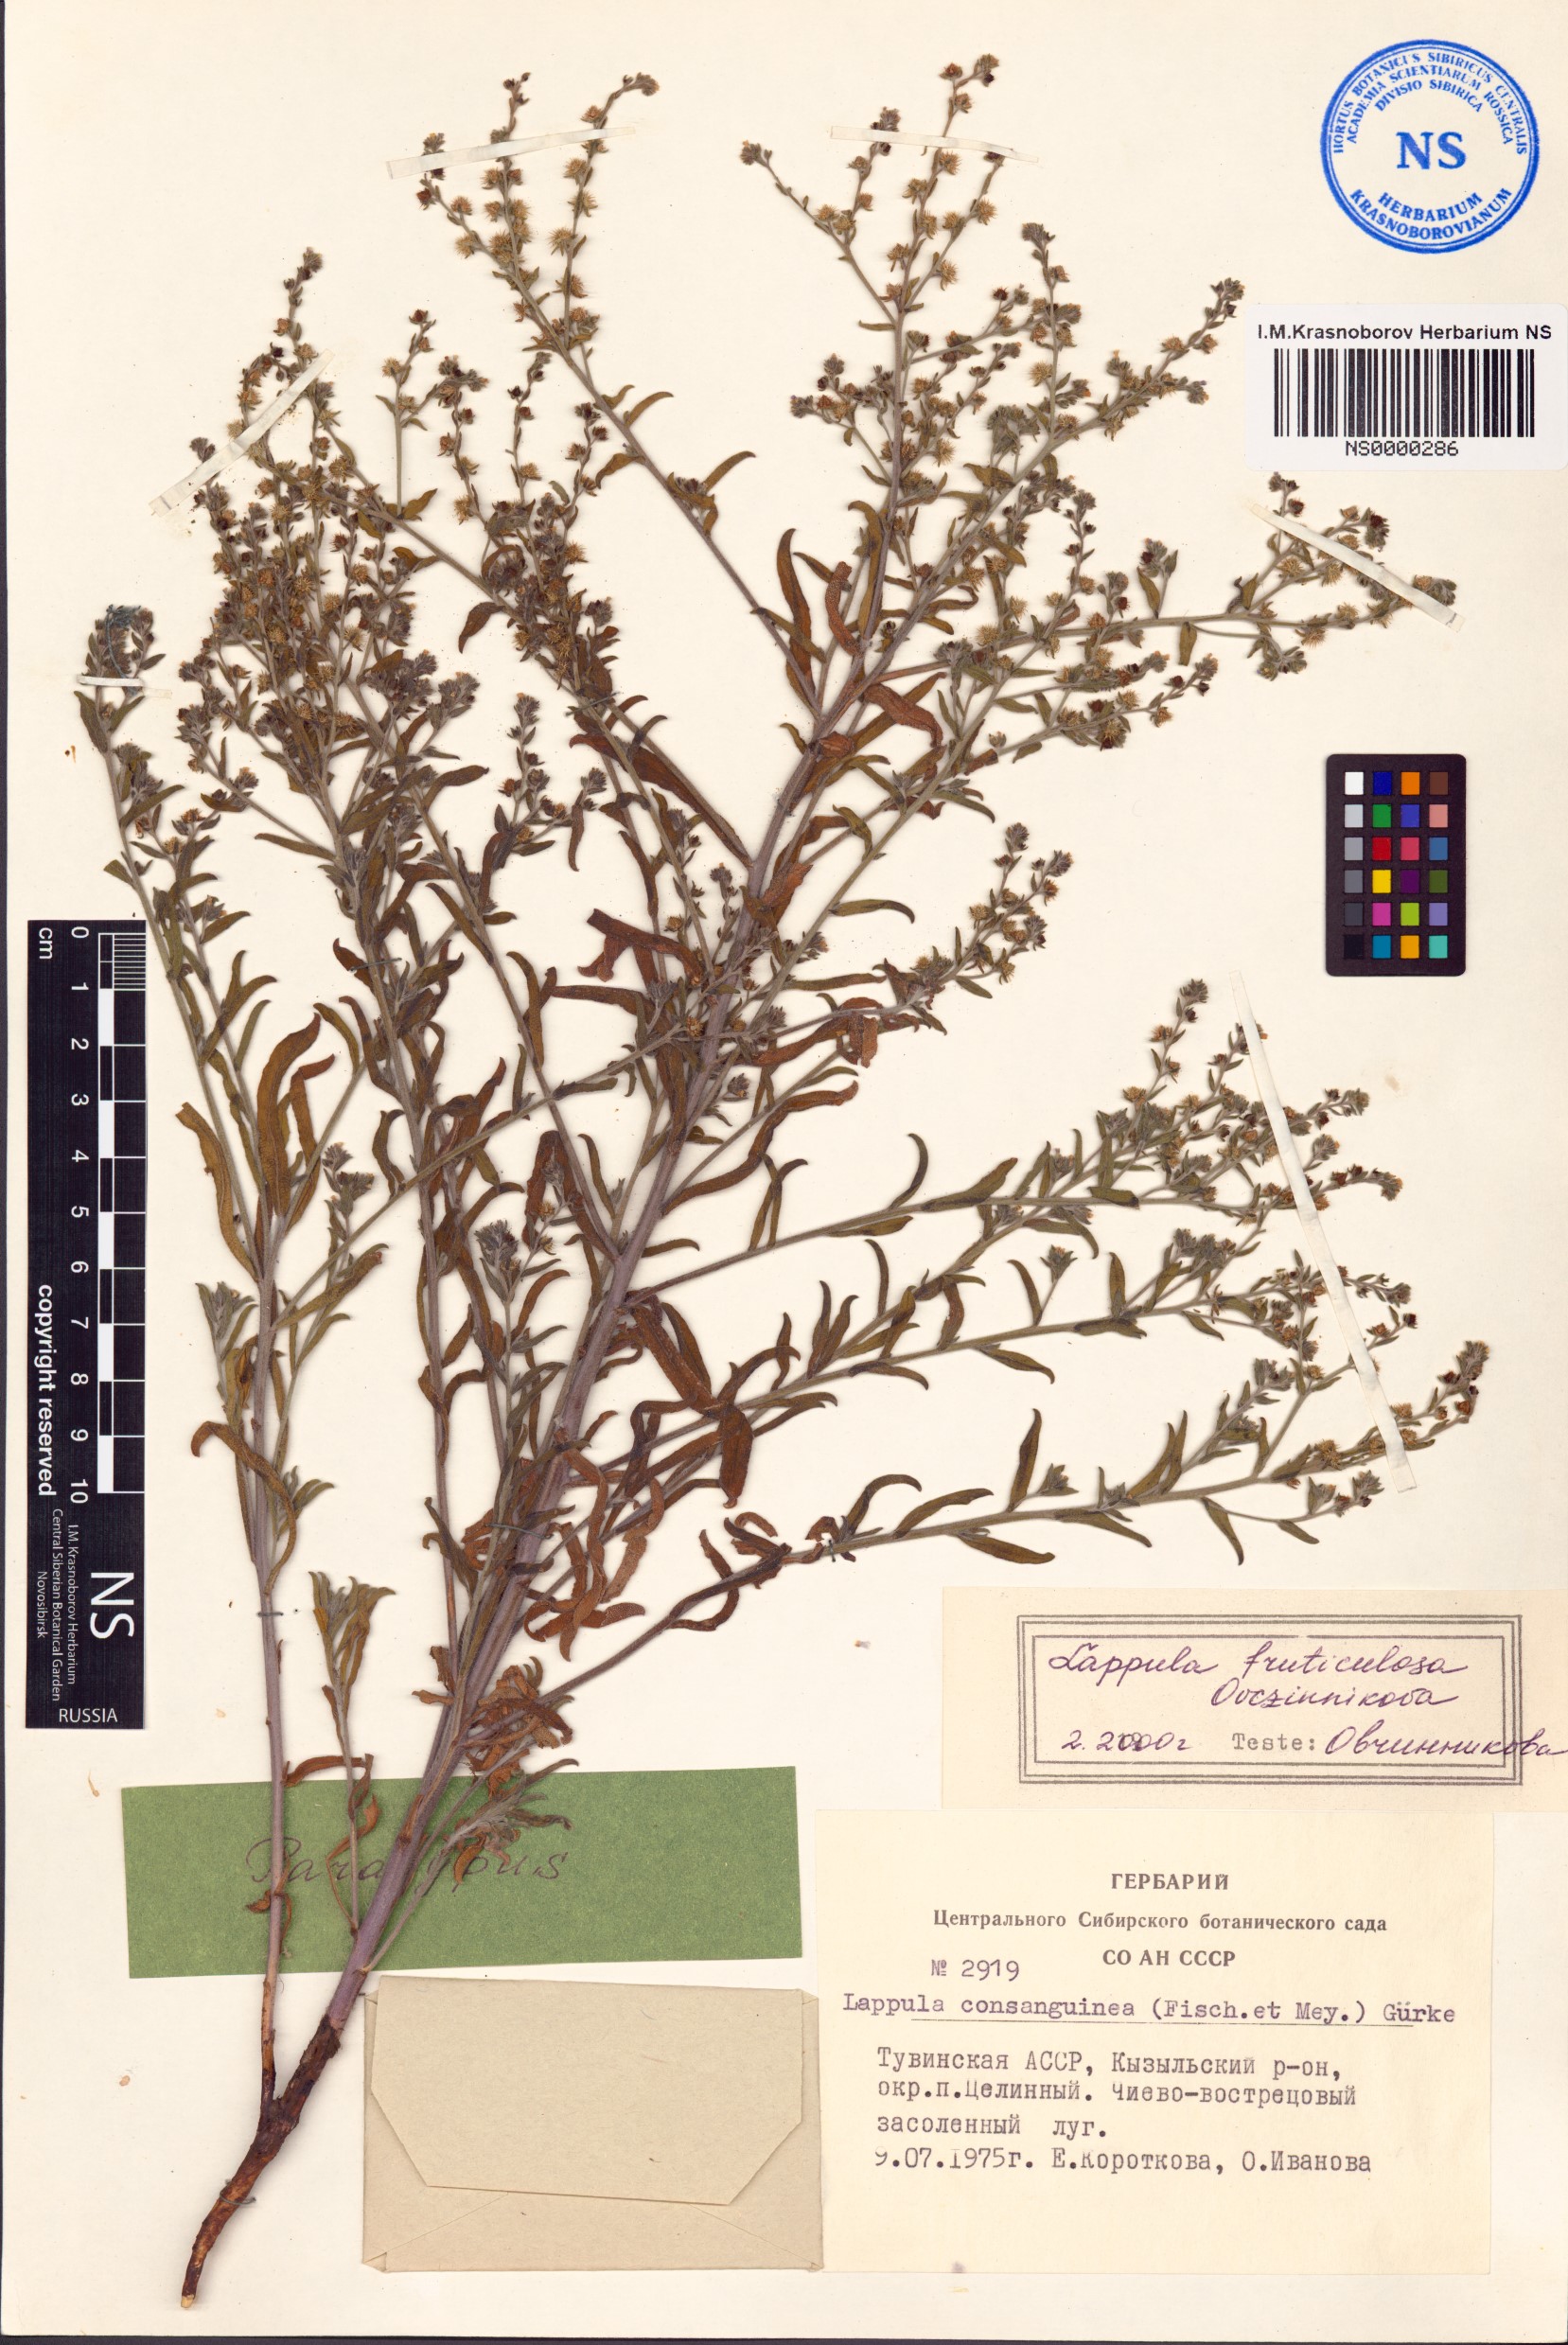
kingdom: Plantae
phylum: Tracheophyta
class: Magnoliopsida
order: Boraginales
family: Boraginaceae
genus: Lappula
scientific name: Lappula fruticulosa
